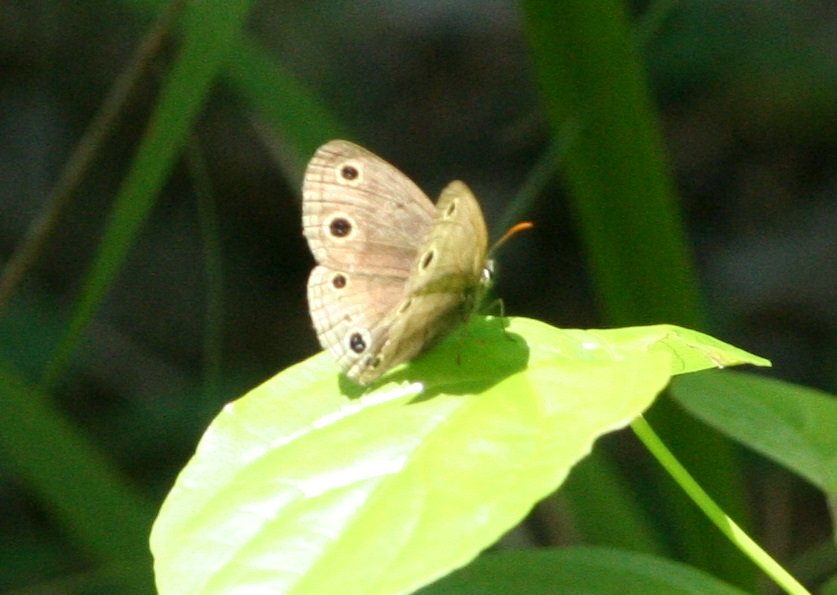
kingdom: Animalia
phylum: Arthropoda
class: Insecta
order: Lepidoptera
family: Nymphalidae
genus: Euptychia
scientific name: Euptychia cymela
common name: Little Wood Satyr
